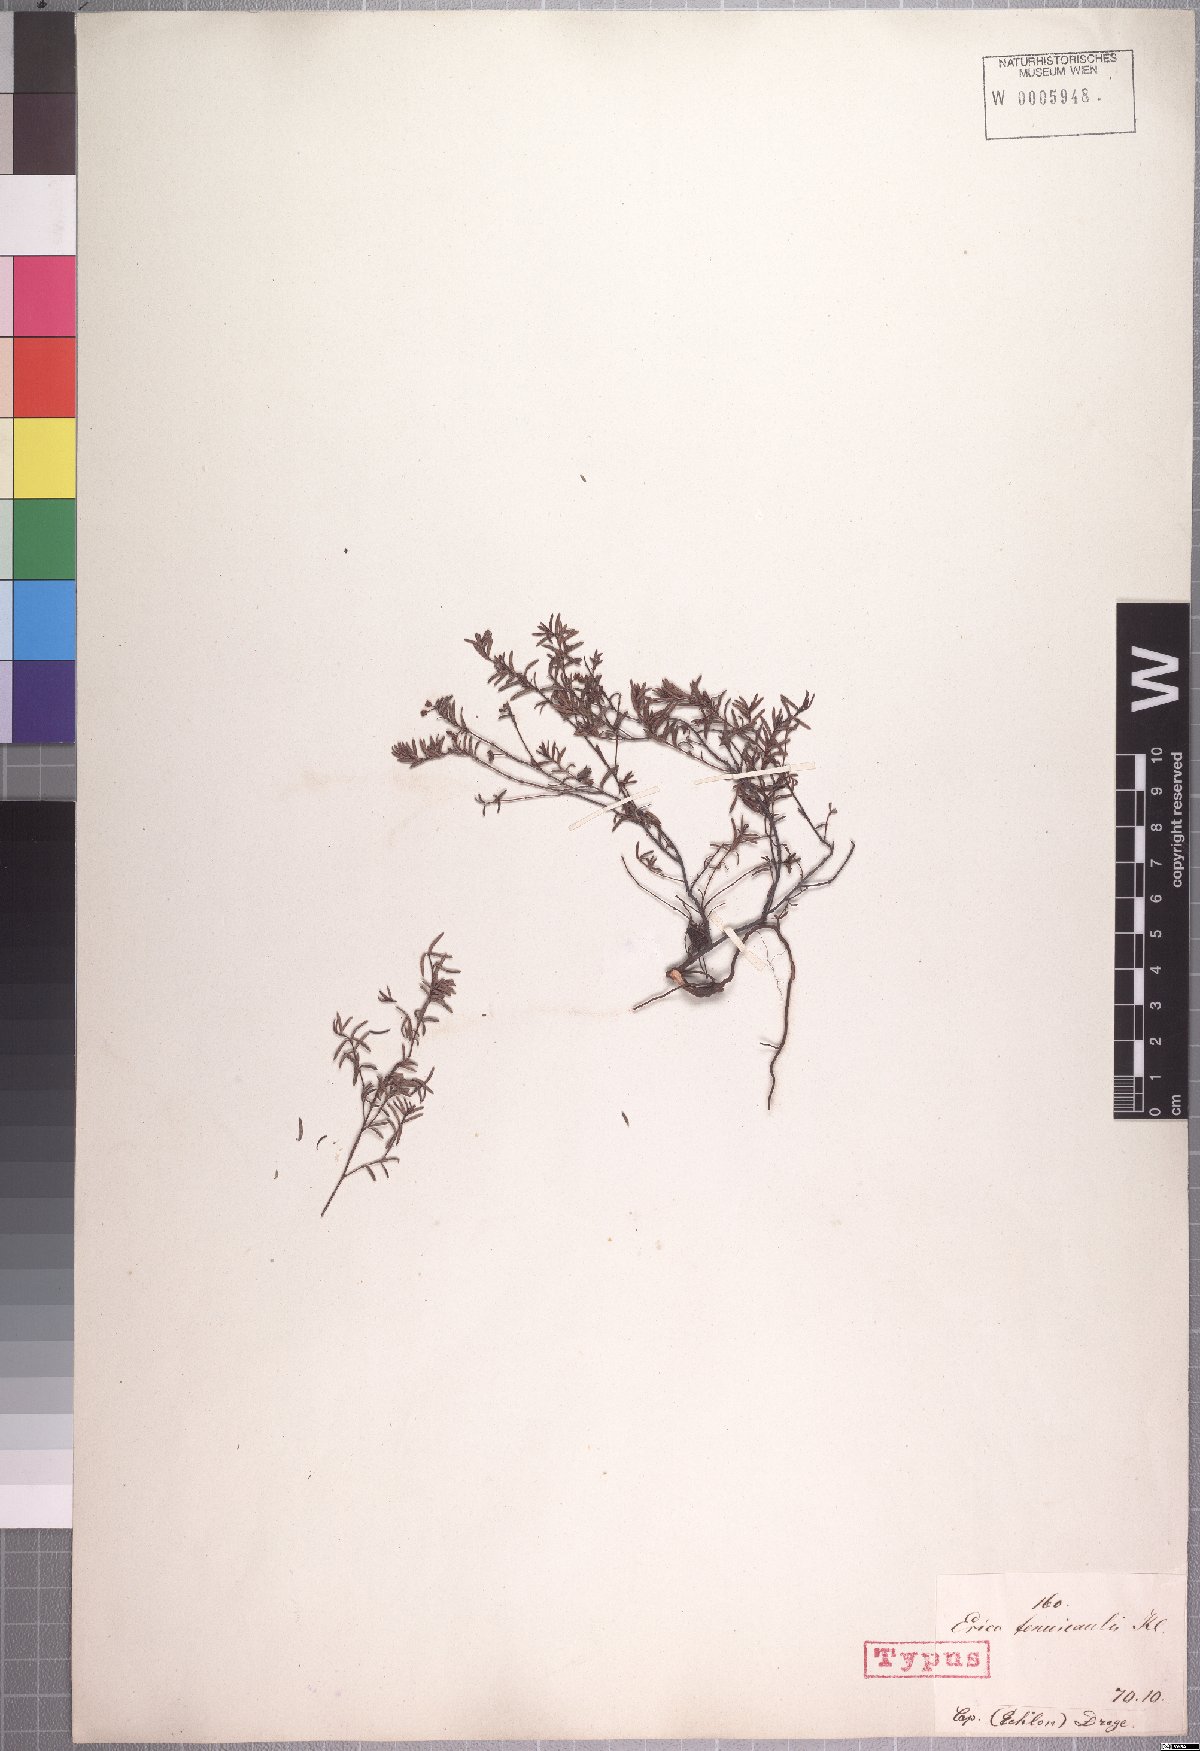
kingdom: Plantae
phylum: Tracheophyta
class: Magnoliopsida
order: Ericales
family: Ericaceae
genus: Erica
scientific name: Erica tenuicaulis
